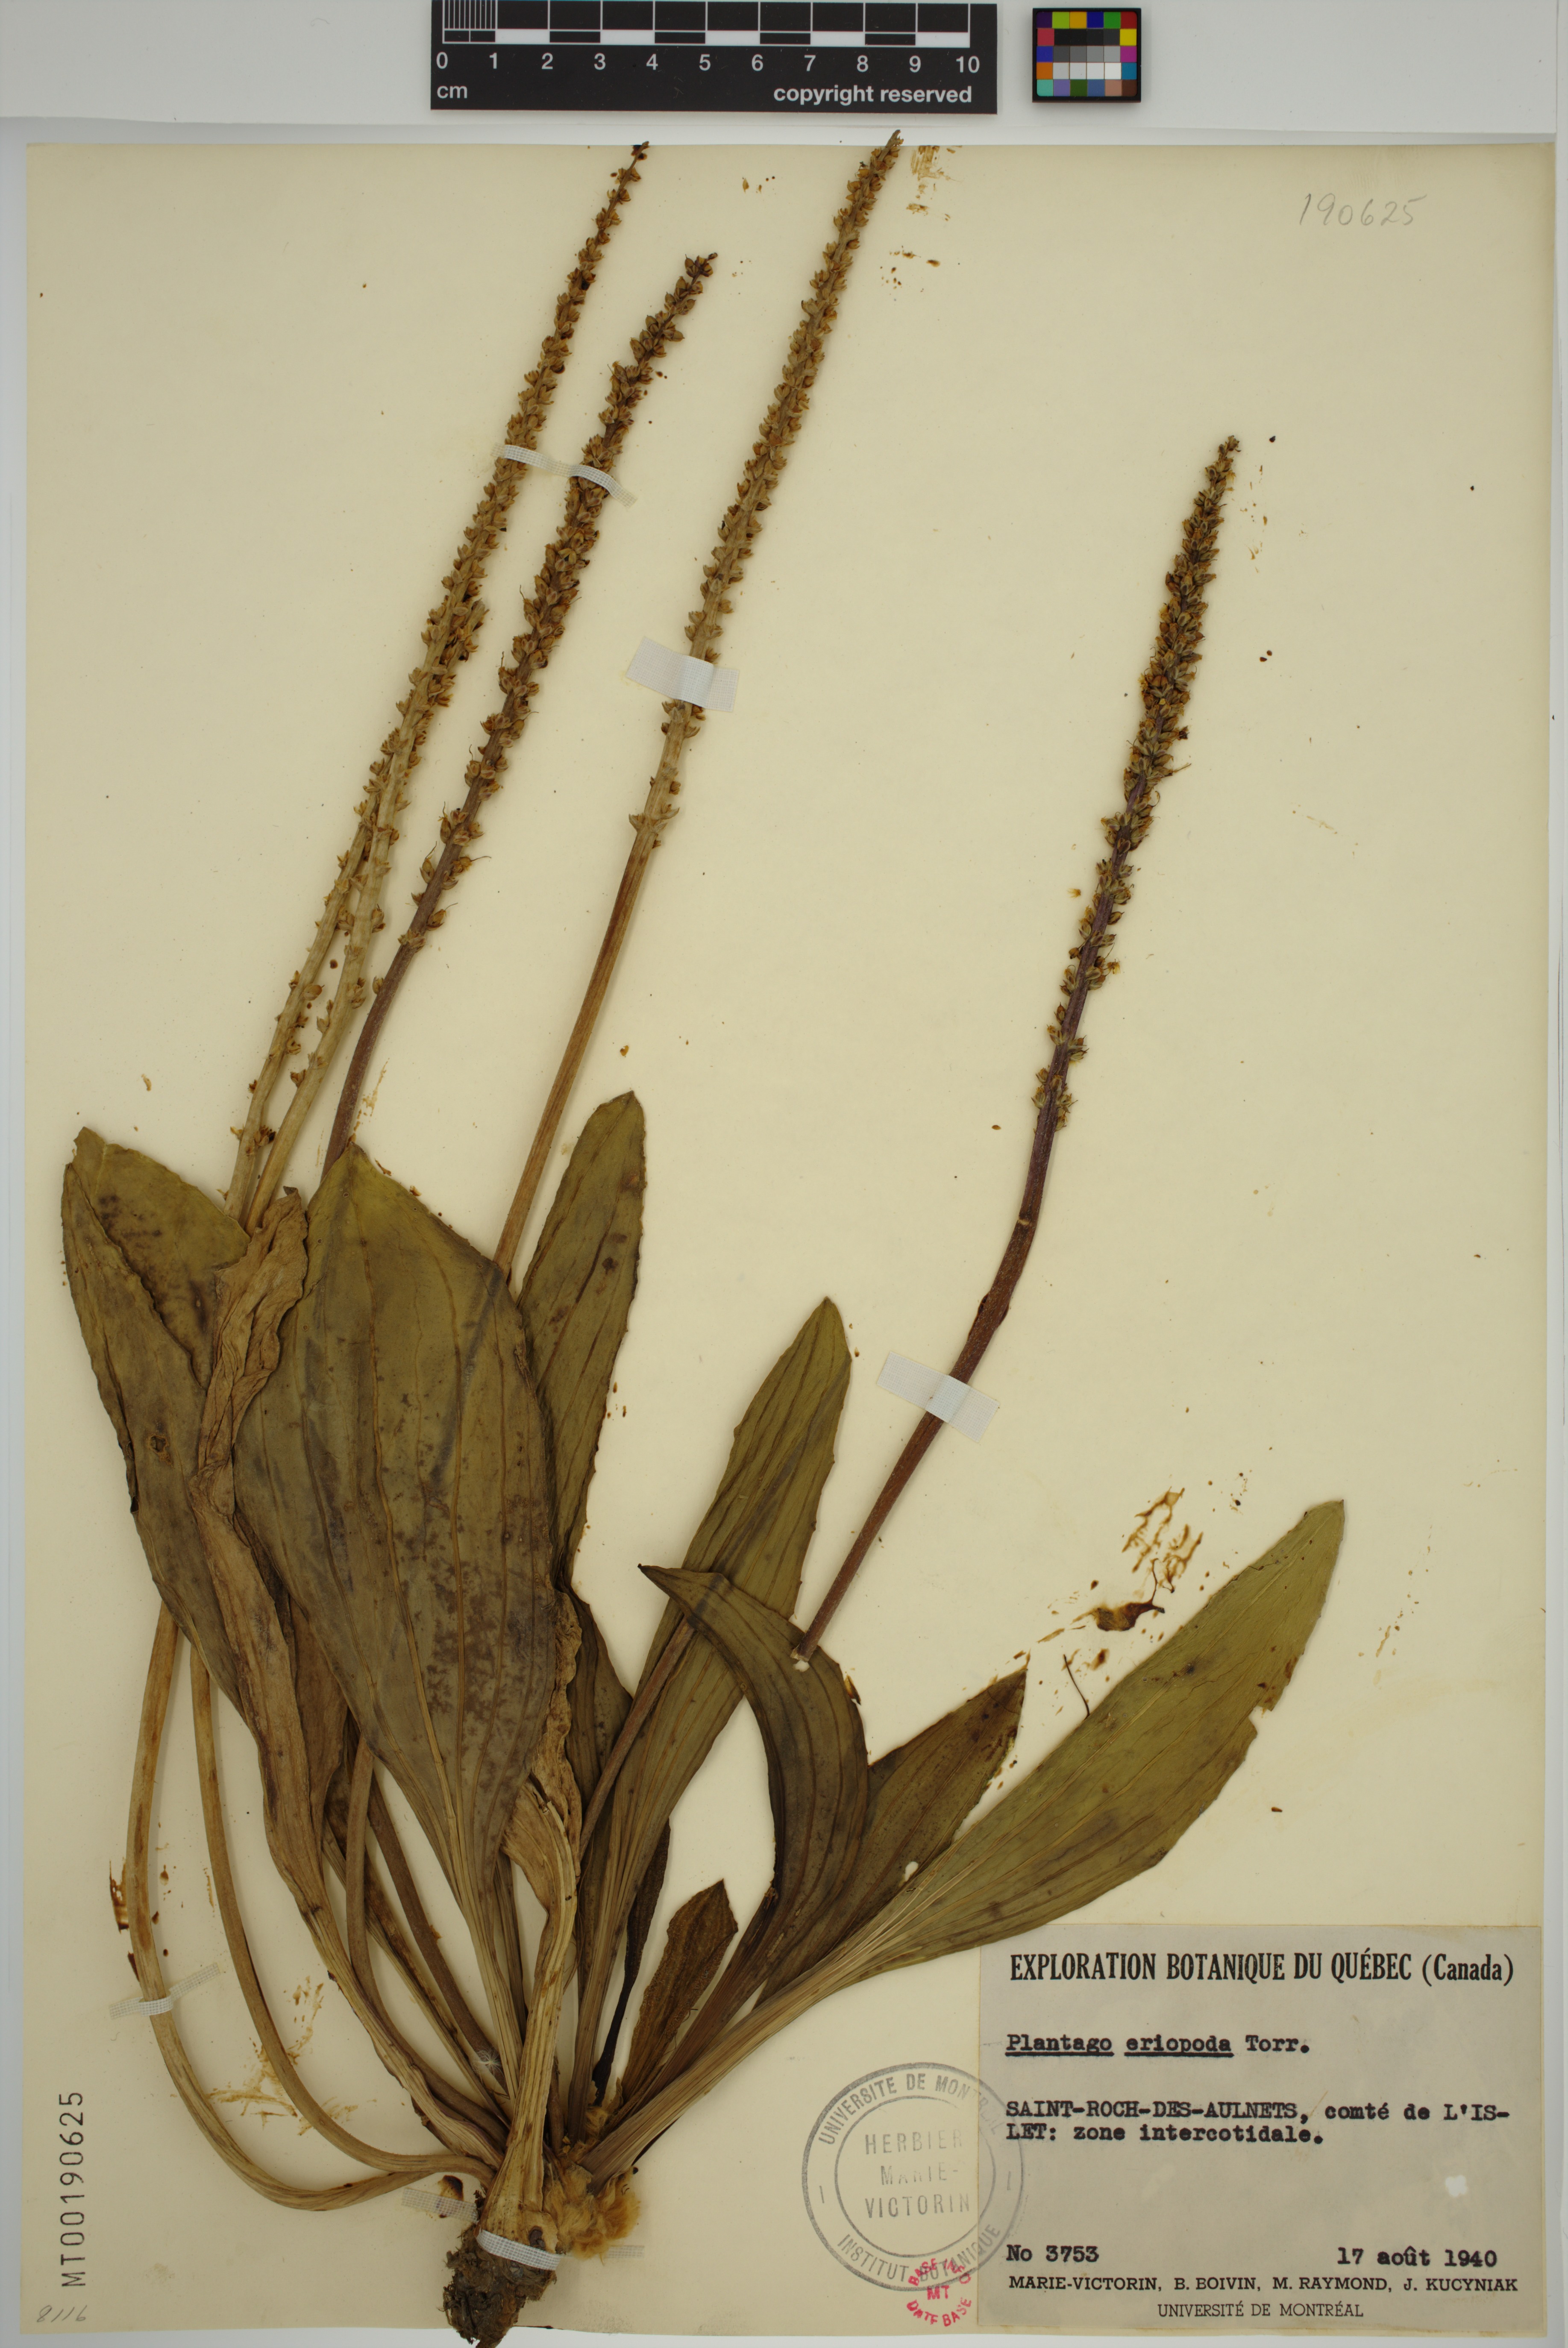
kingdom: Plantae
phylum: Tracheophyta
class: Magnoliopsida
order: Lamiales
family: Plantaginaceae
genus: Plantago
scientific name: Plantago eriopoda
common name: Alkali plantain
